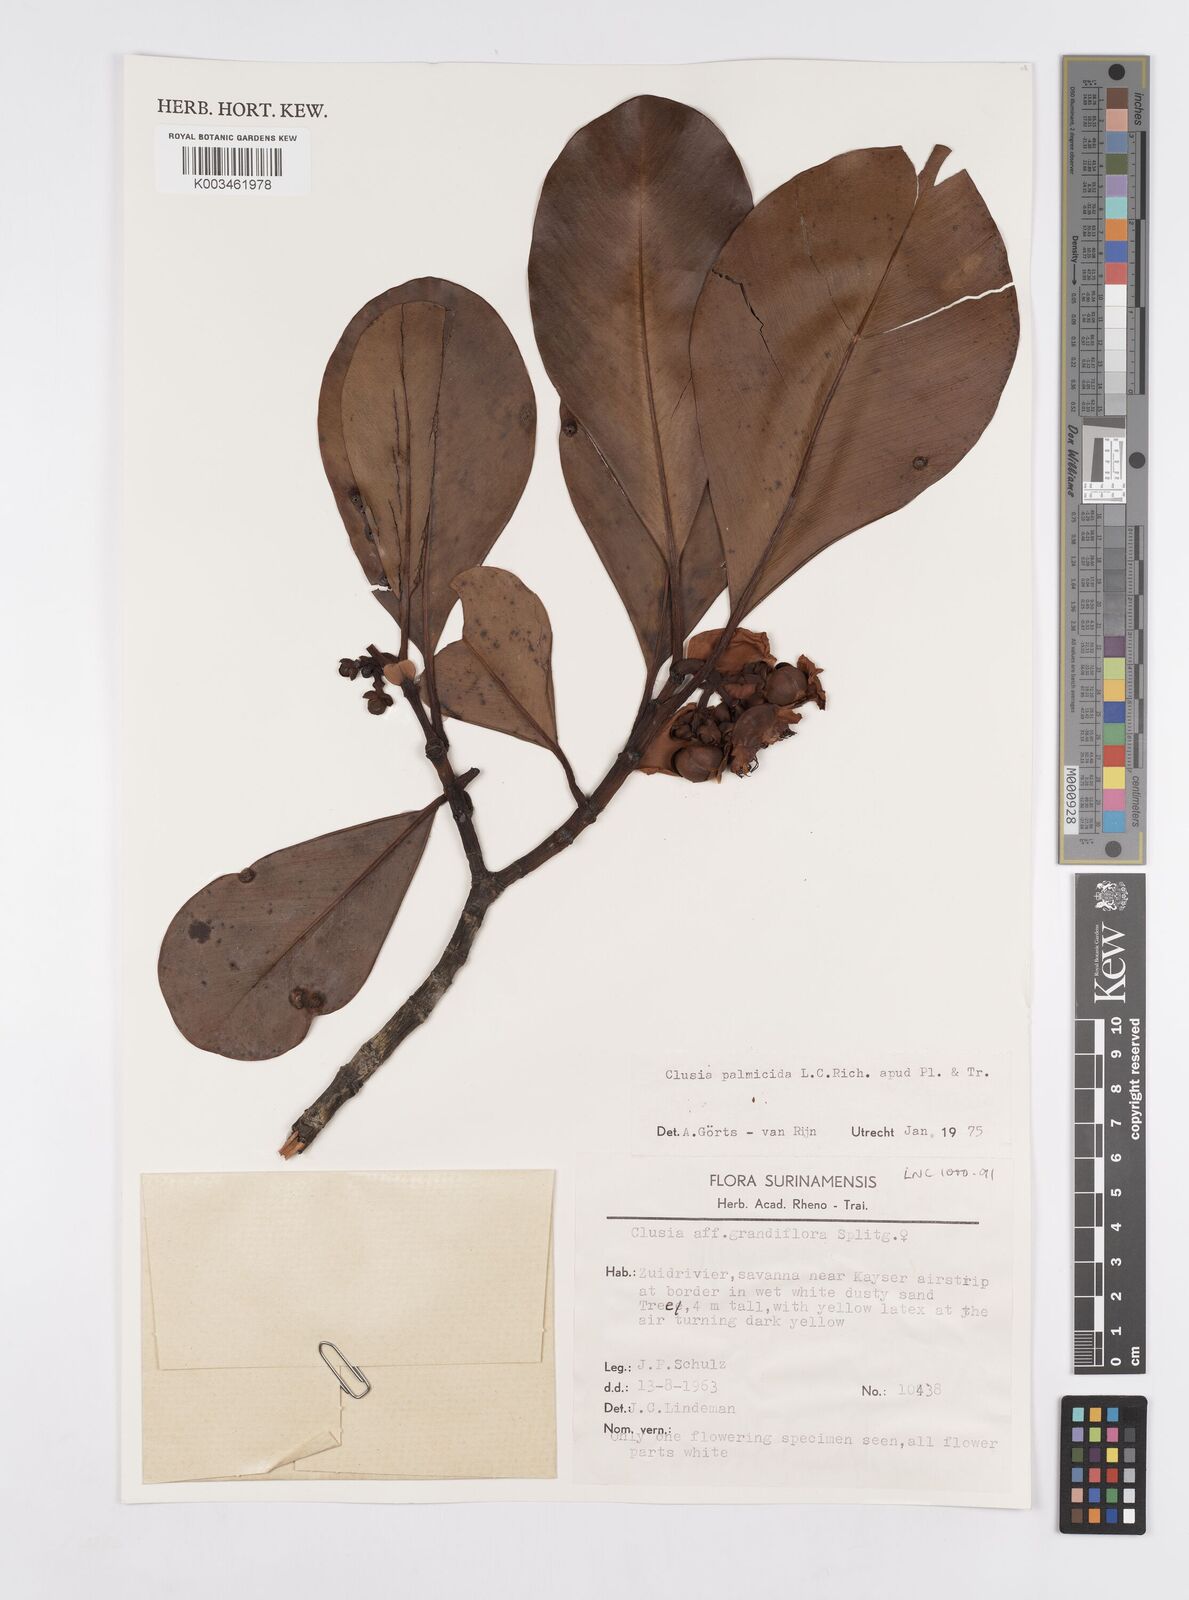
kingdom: Plantae
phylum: Tracheophyta
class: Magnoliopsida
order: Malpighiales
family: Clusiaceae
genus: Clusia
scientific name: Clusia palmicida
